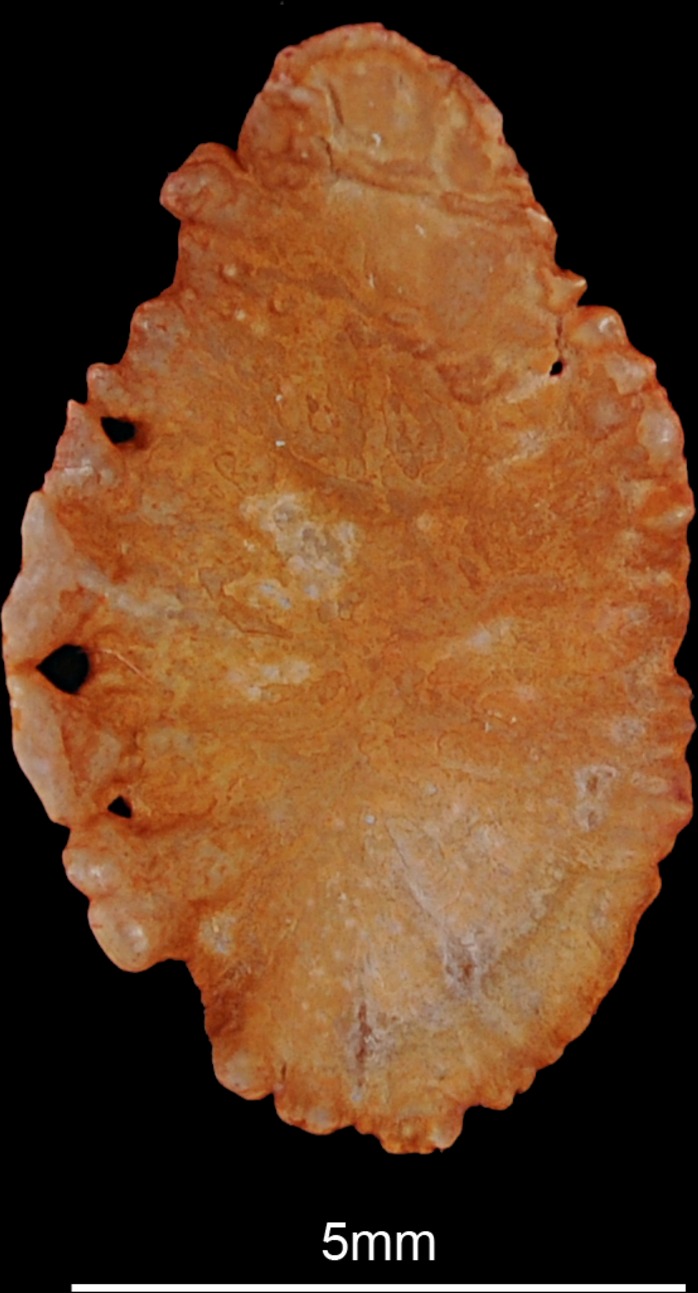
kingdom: Animalia
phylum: Chordata
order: Perciformes
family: Cichlidae
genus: Sarotherodon
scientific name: Sarotherodon galilaeus
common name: Mango tilapia
